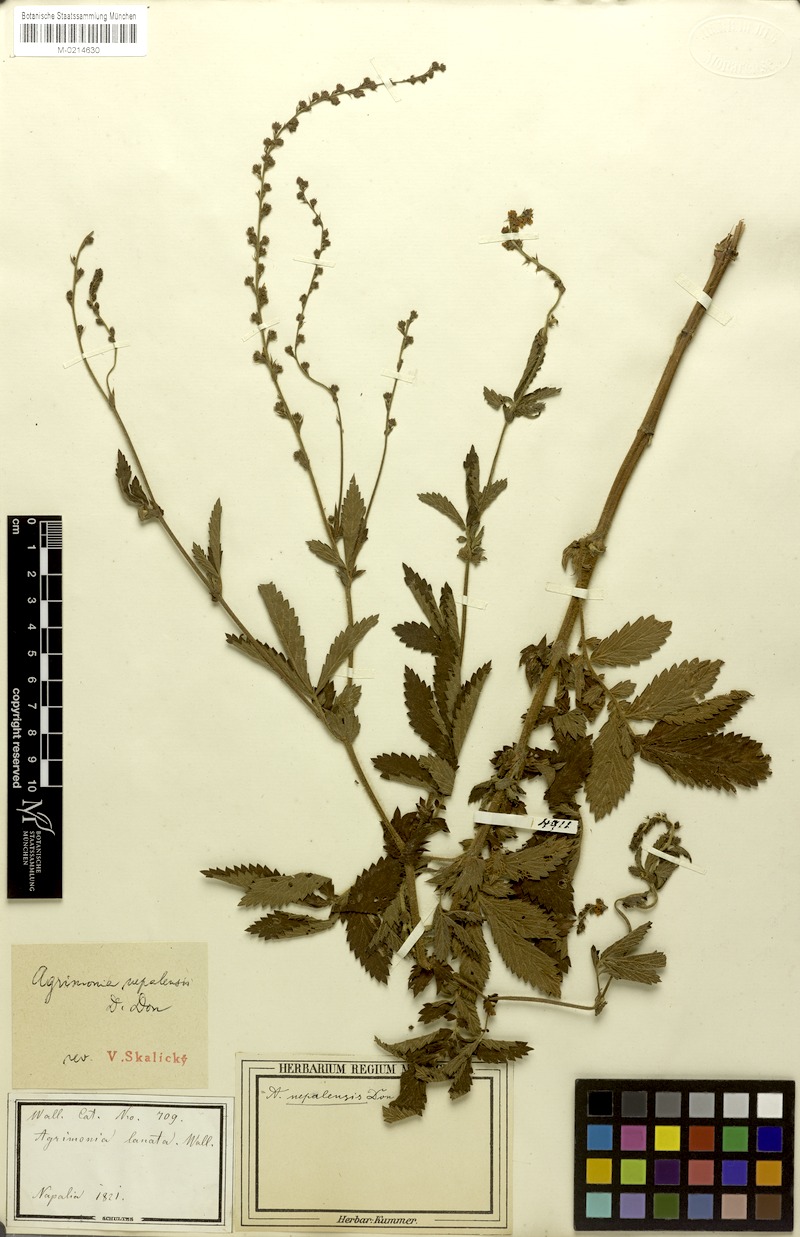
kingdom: Plantae
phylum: Tracheophyta
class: Magnoliopsida
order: Rosales
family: Rosaceae
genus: Agrimonia
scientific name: Agrimonia pilosa
